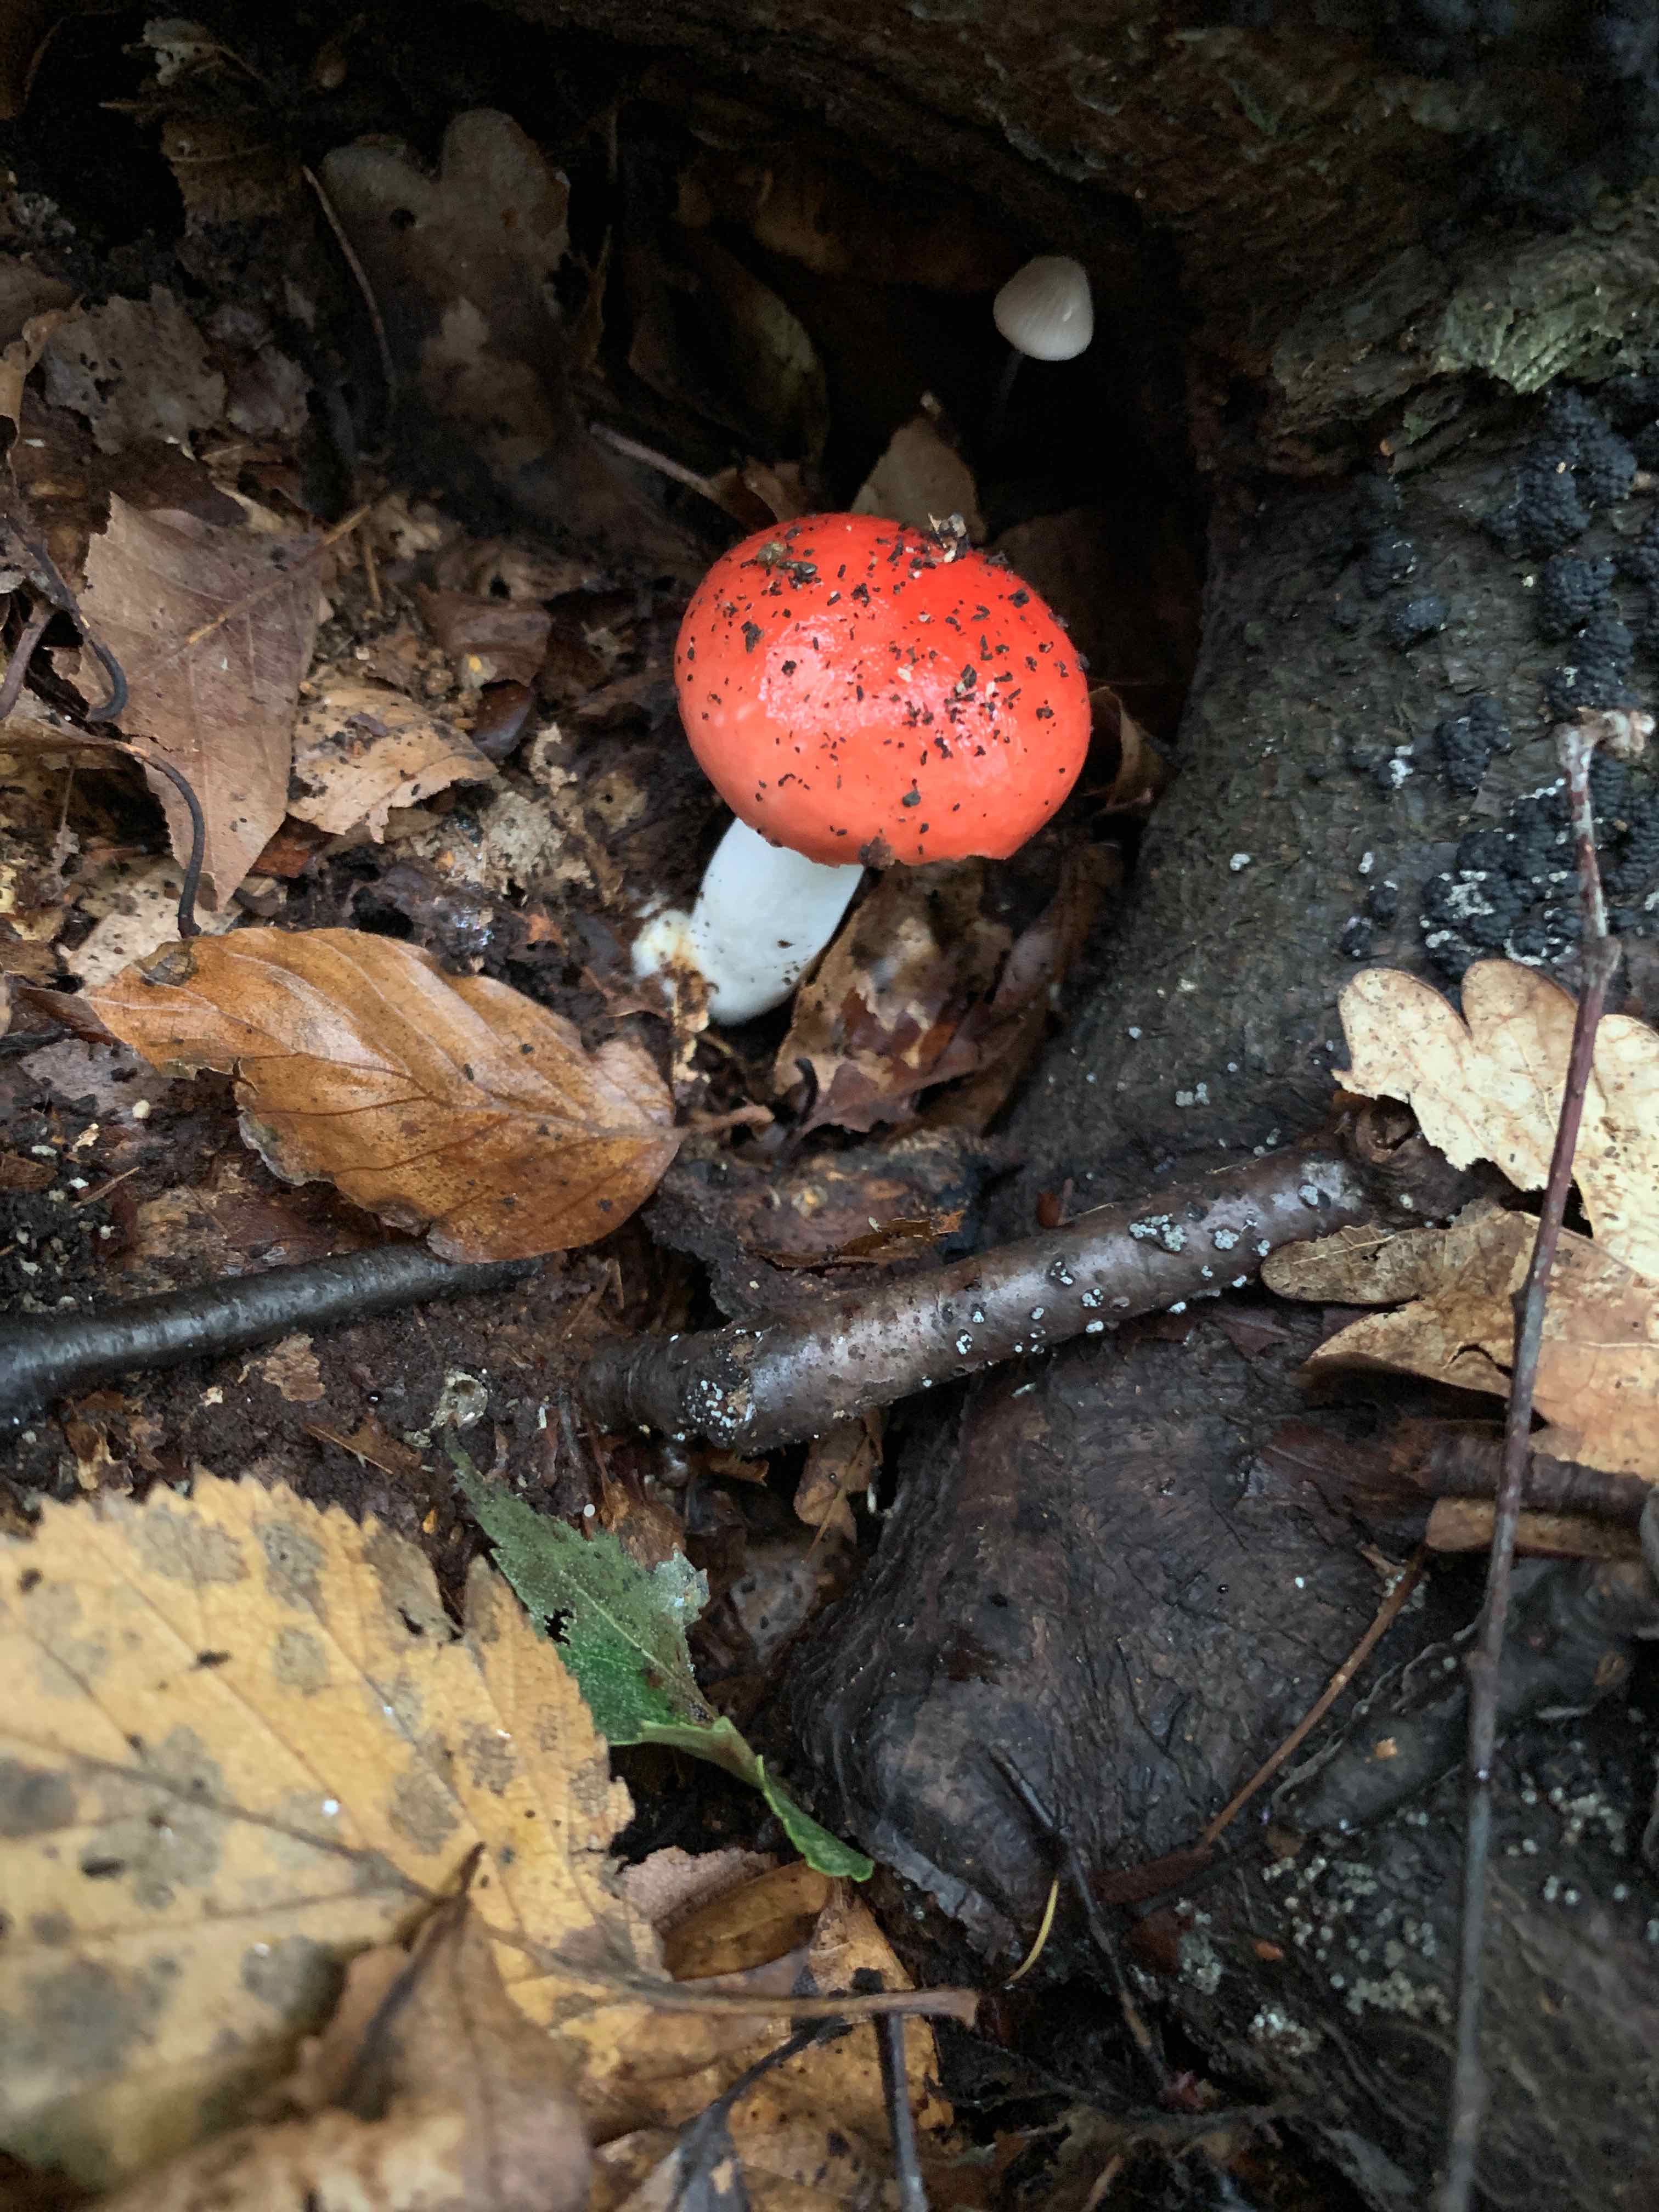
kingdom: Fungi
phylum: Basidiomycota
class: Agaricomycetes
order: Russulales
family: Russulaceae
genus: Russula
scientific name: Russula
